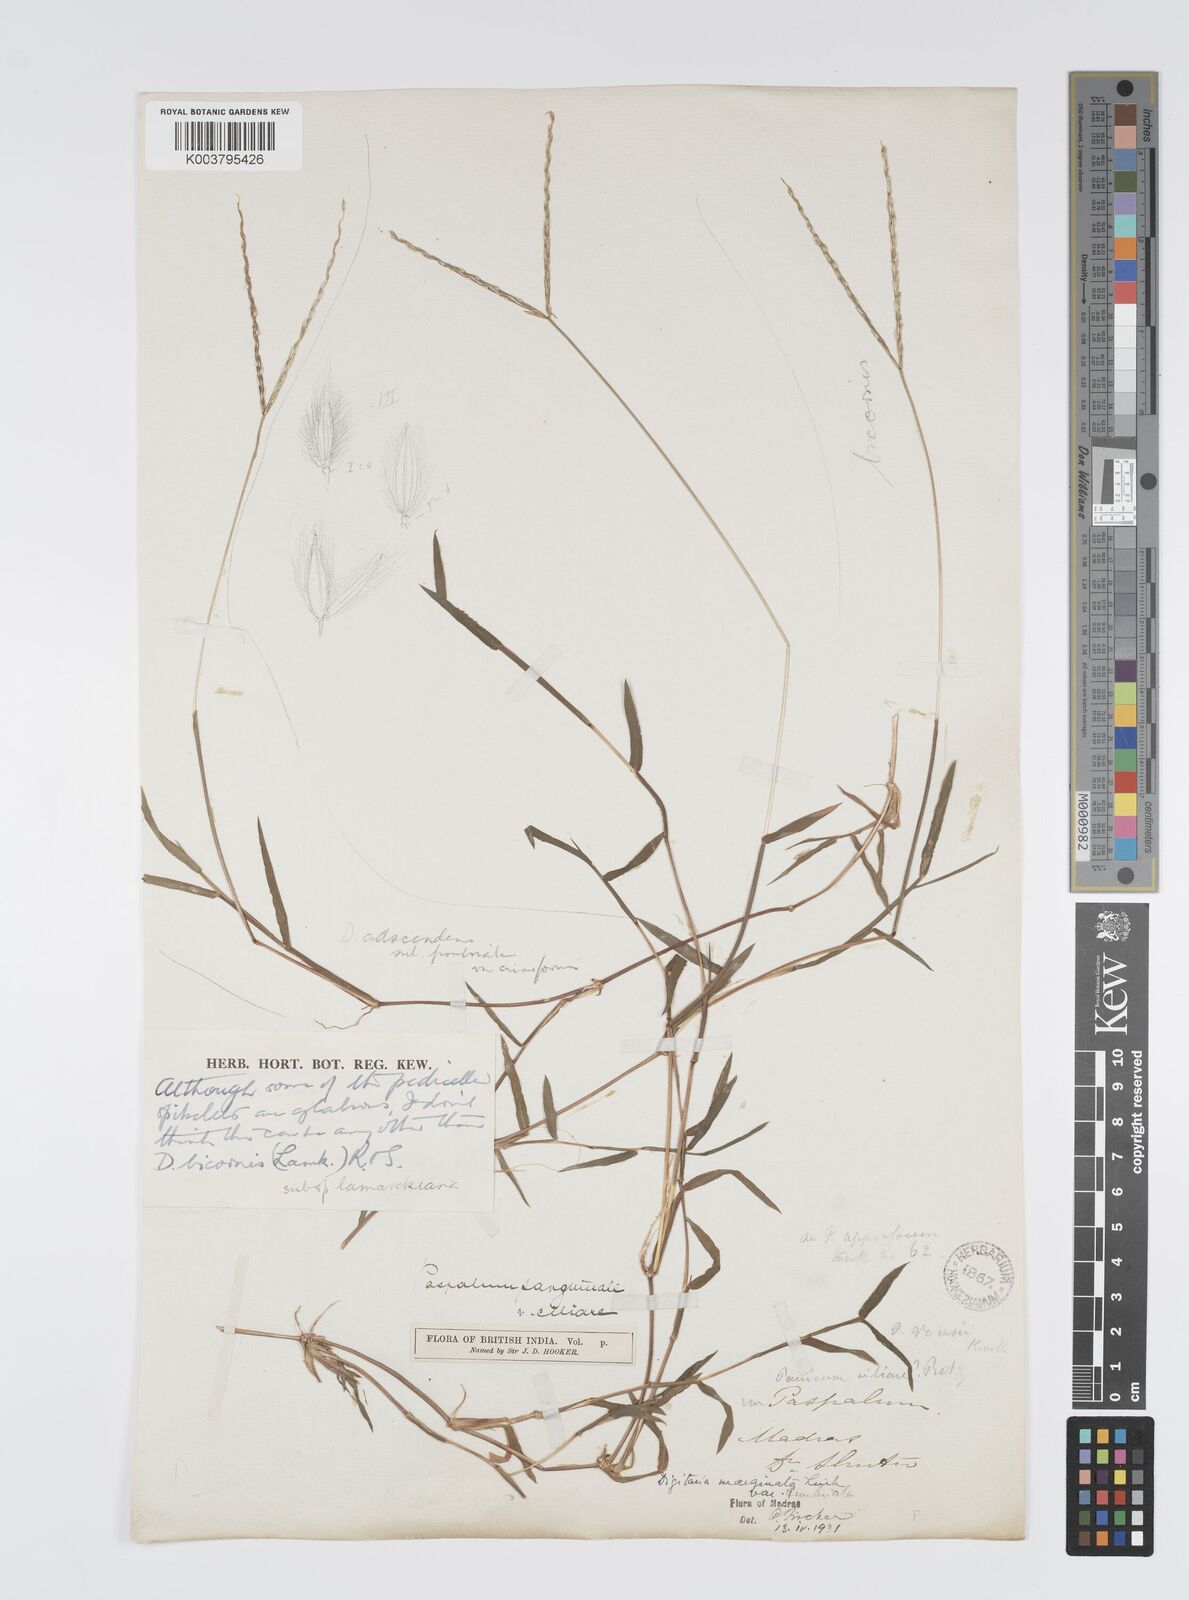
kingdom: Plantae
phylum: Tracheophyta
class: Liliopsida
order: Poales
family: Poaceae
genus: Digitaria
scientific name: Digitaria bicornis
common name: Asian crabgrass
